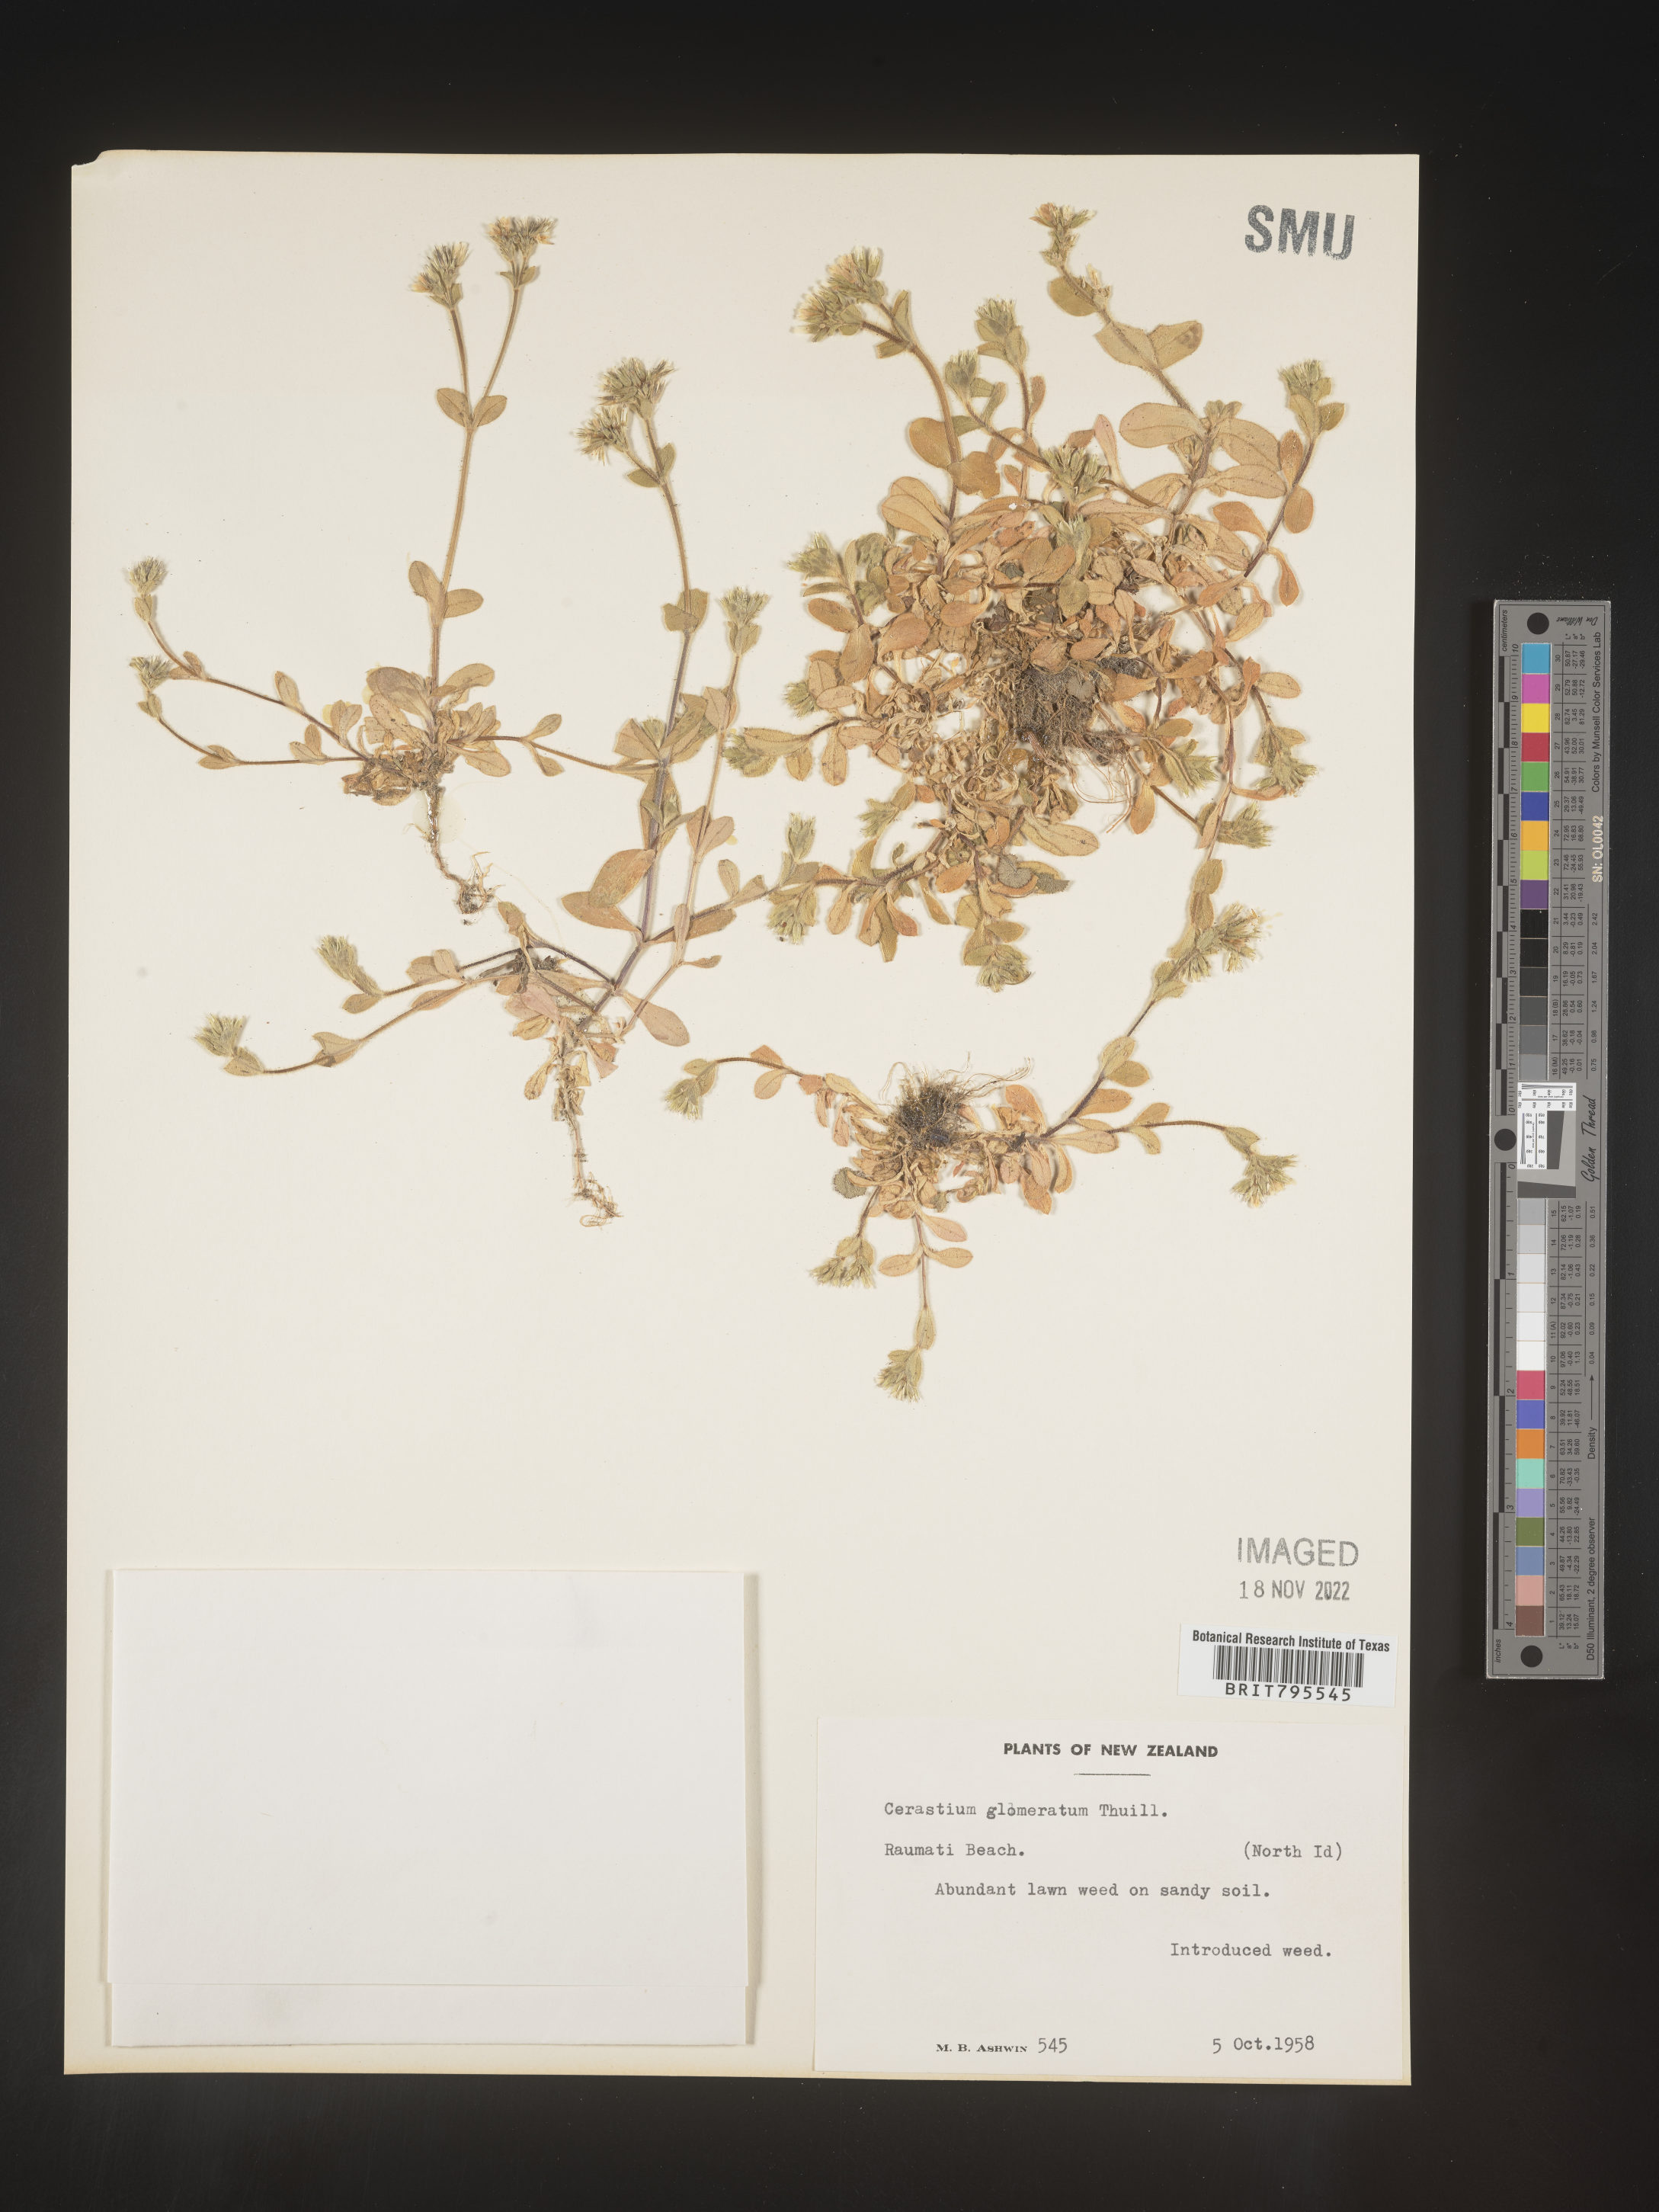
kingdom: Plantae
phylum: Tracheophyta
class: Magnoliopsida
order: Caryophyllales
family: Caryophyllaceae
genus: Cerastium
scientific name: Cerastium
